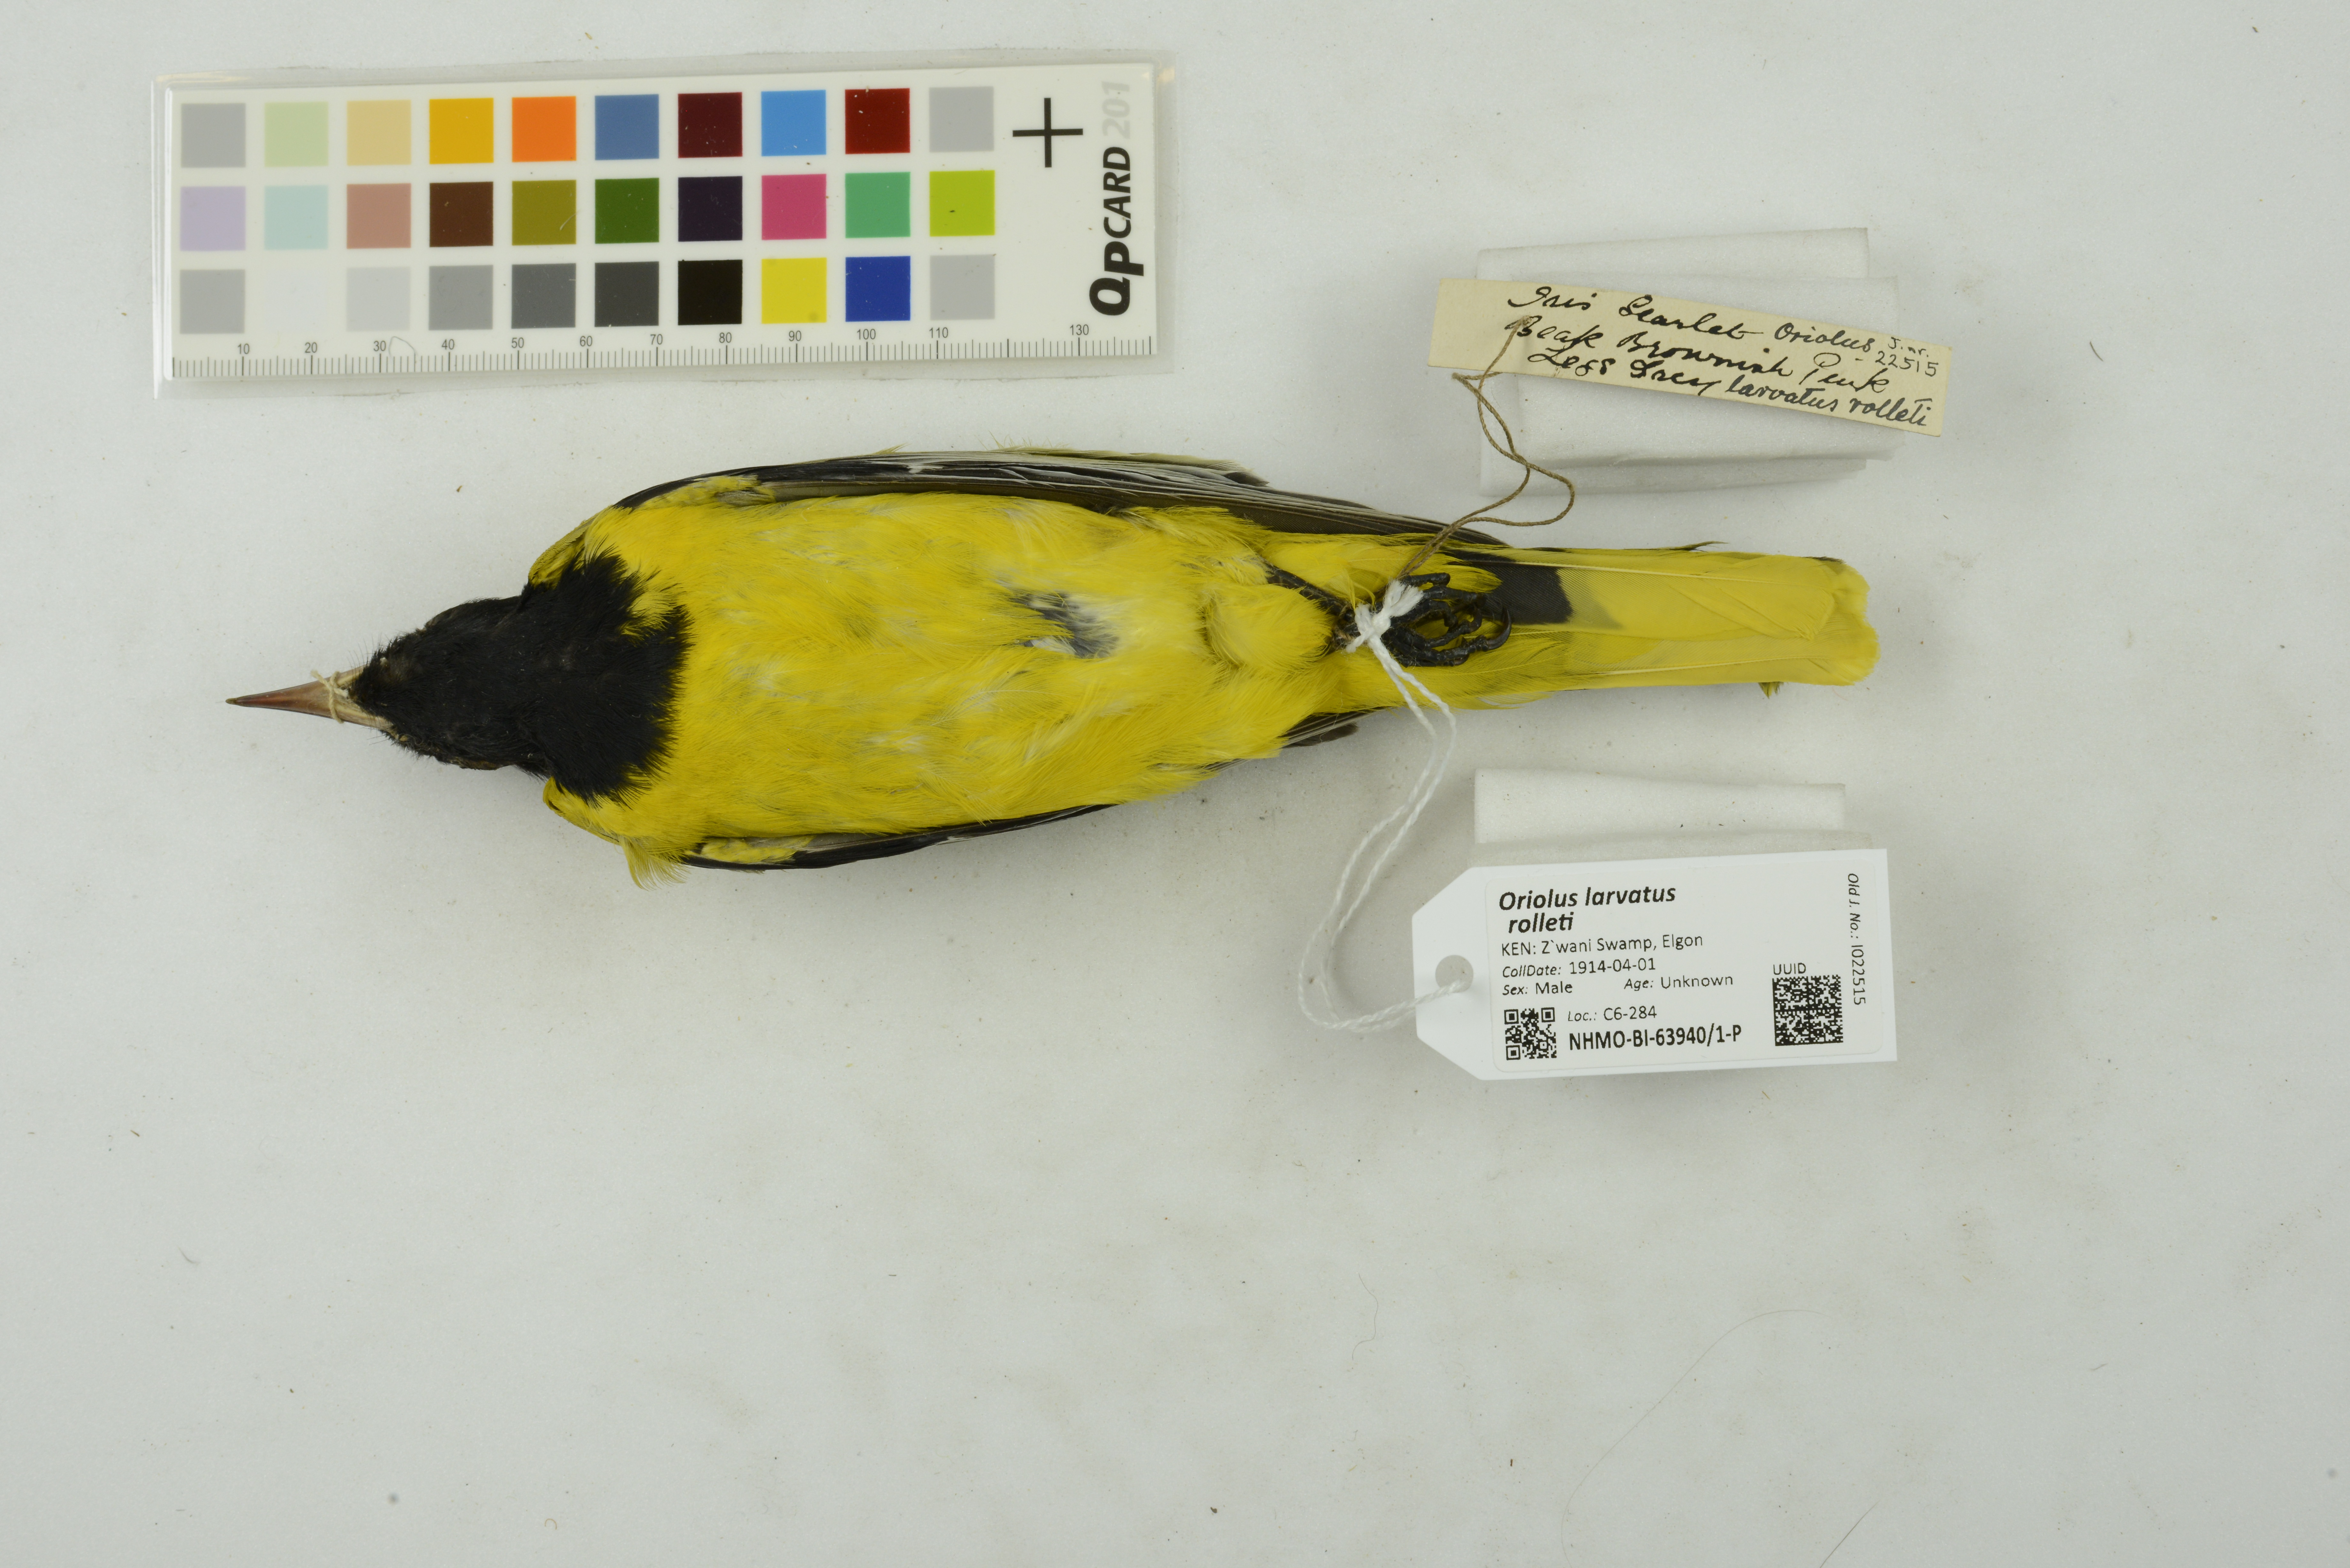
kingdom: Animalia
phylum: Chordata
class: Aves
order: Passeriformes
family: Oriolidae
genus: Oriolus
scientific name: Oriolus larvatus
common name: Black-headed oriole
